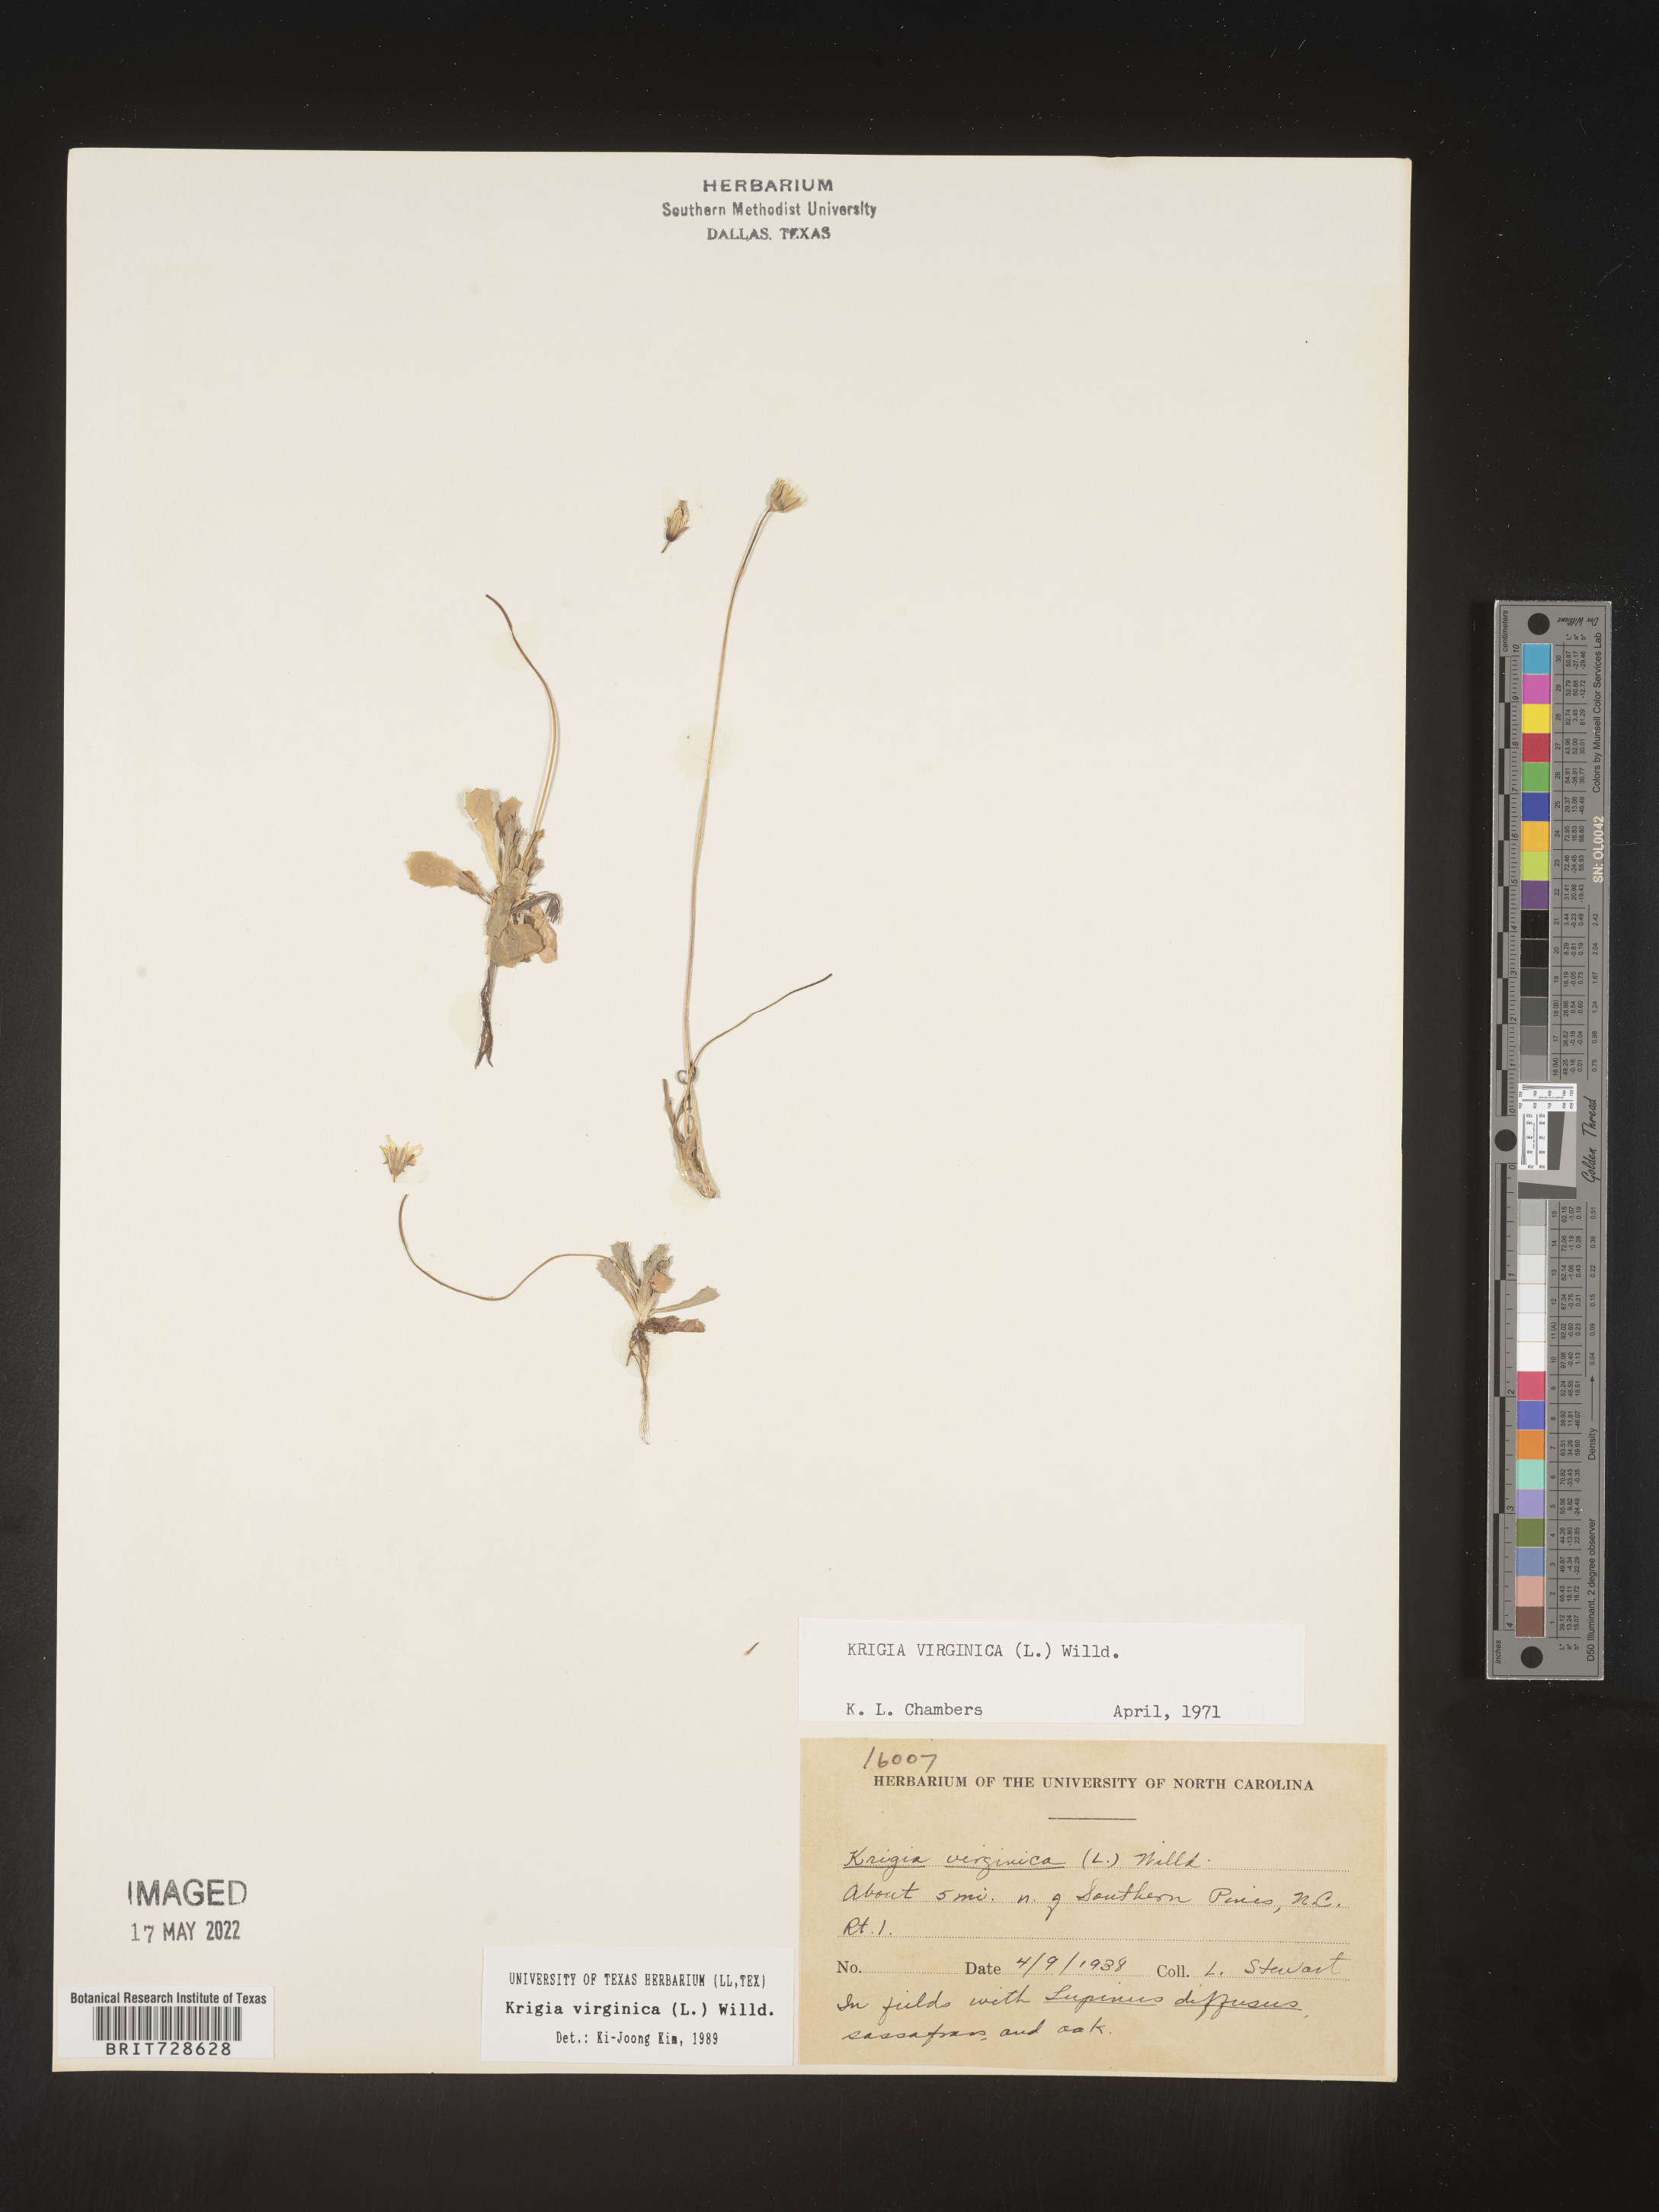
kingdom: Plantae
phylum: Tracheophyta
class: Magnoliopsida
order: Asterales
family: Asteraceae
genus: Krigia
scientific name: Krigia virginica
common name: Virginia dwarf-dandelion
